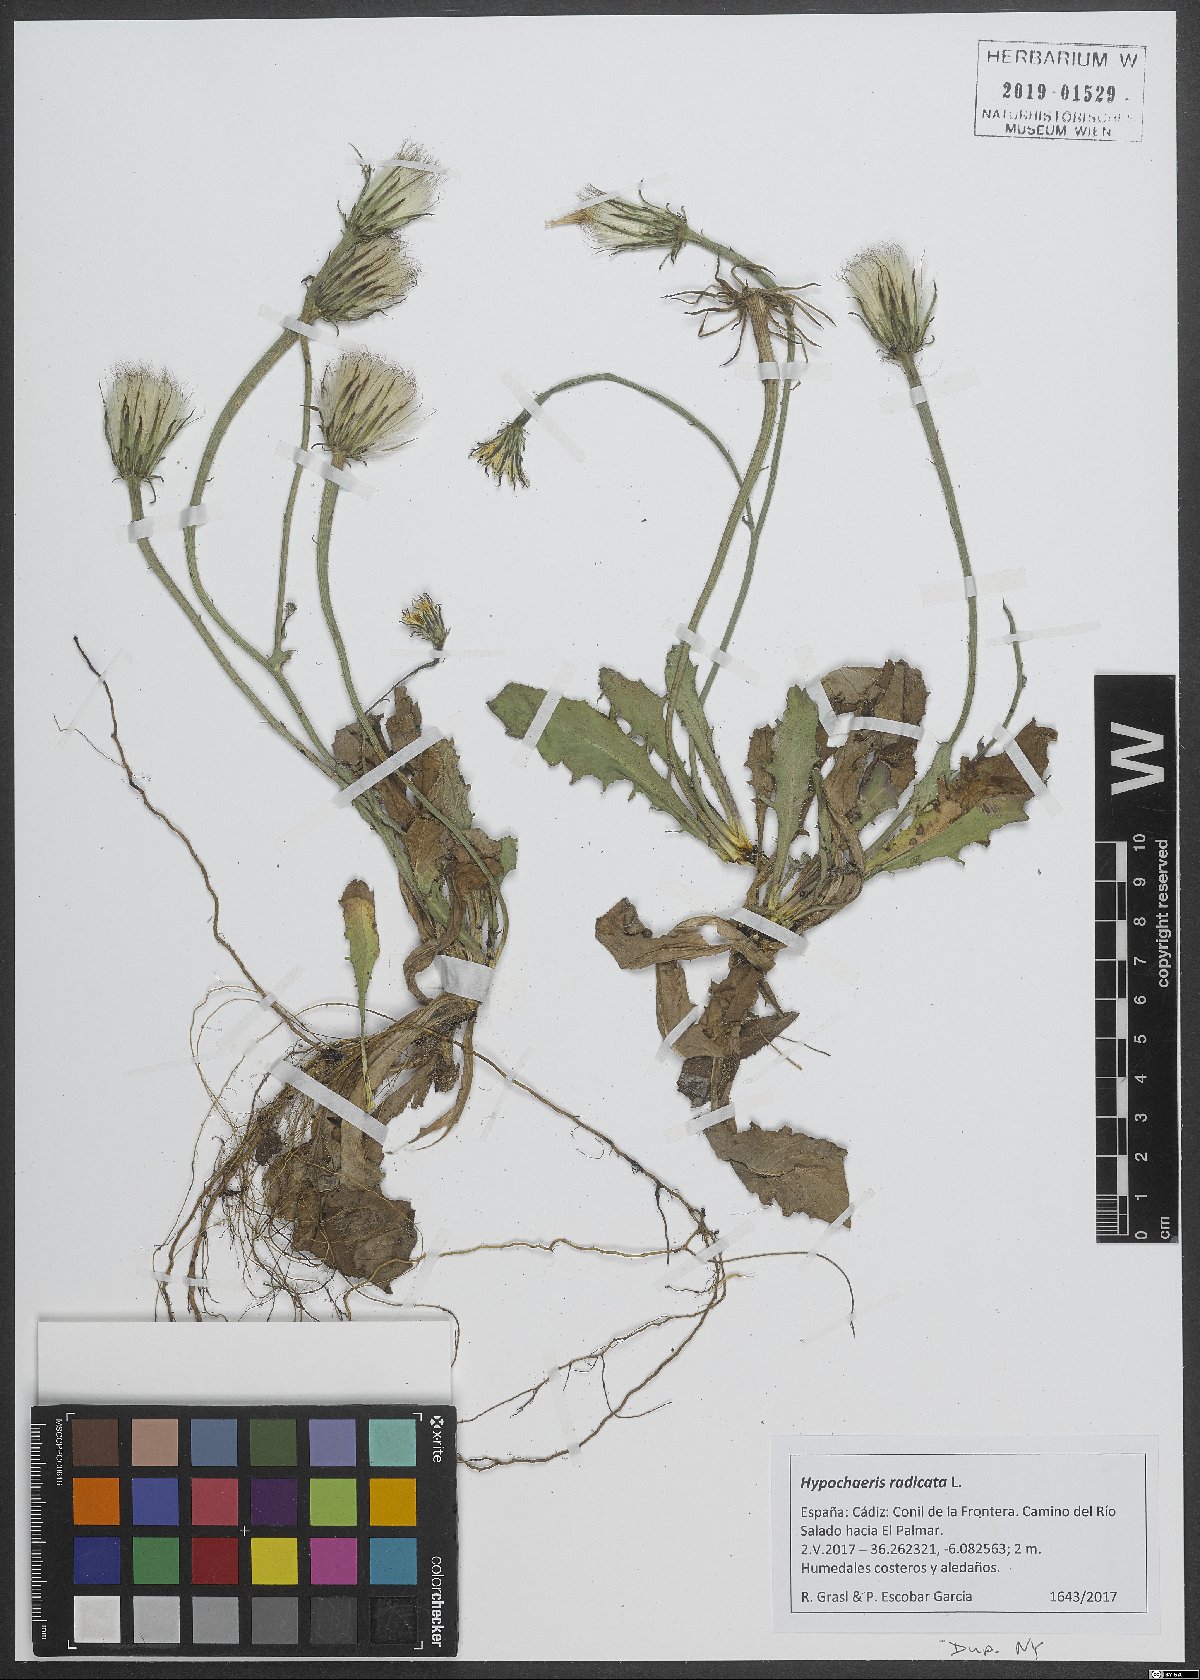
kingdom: Plantae
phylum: Tracheophyta
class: Magnoliopsida
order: Asterales
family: Asteraceae
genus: Hypochaeris
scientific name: Hypochaeris radicata
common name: Flatweed
